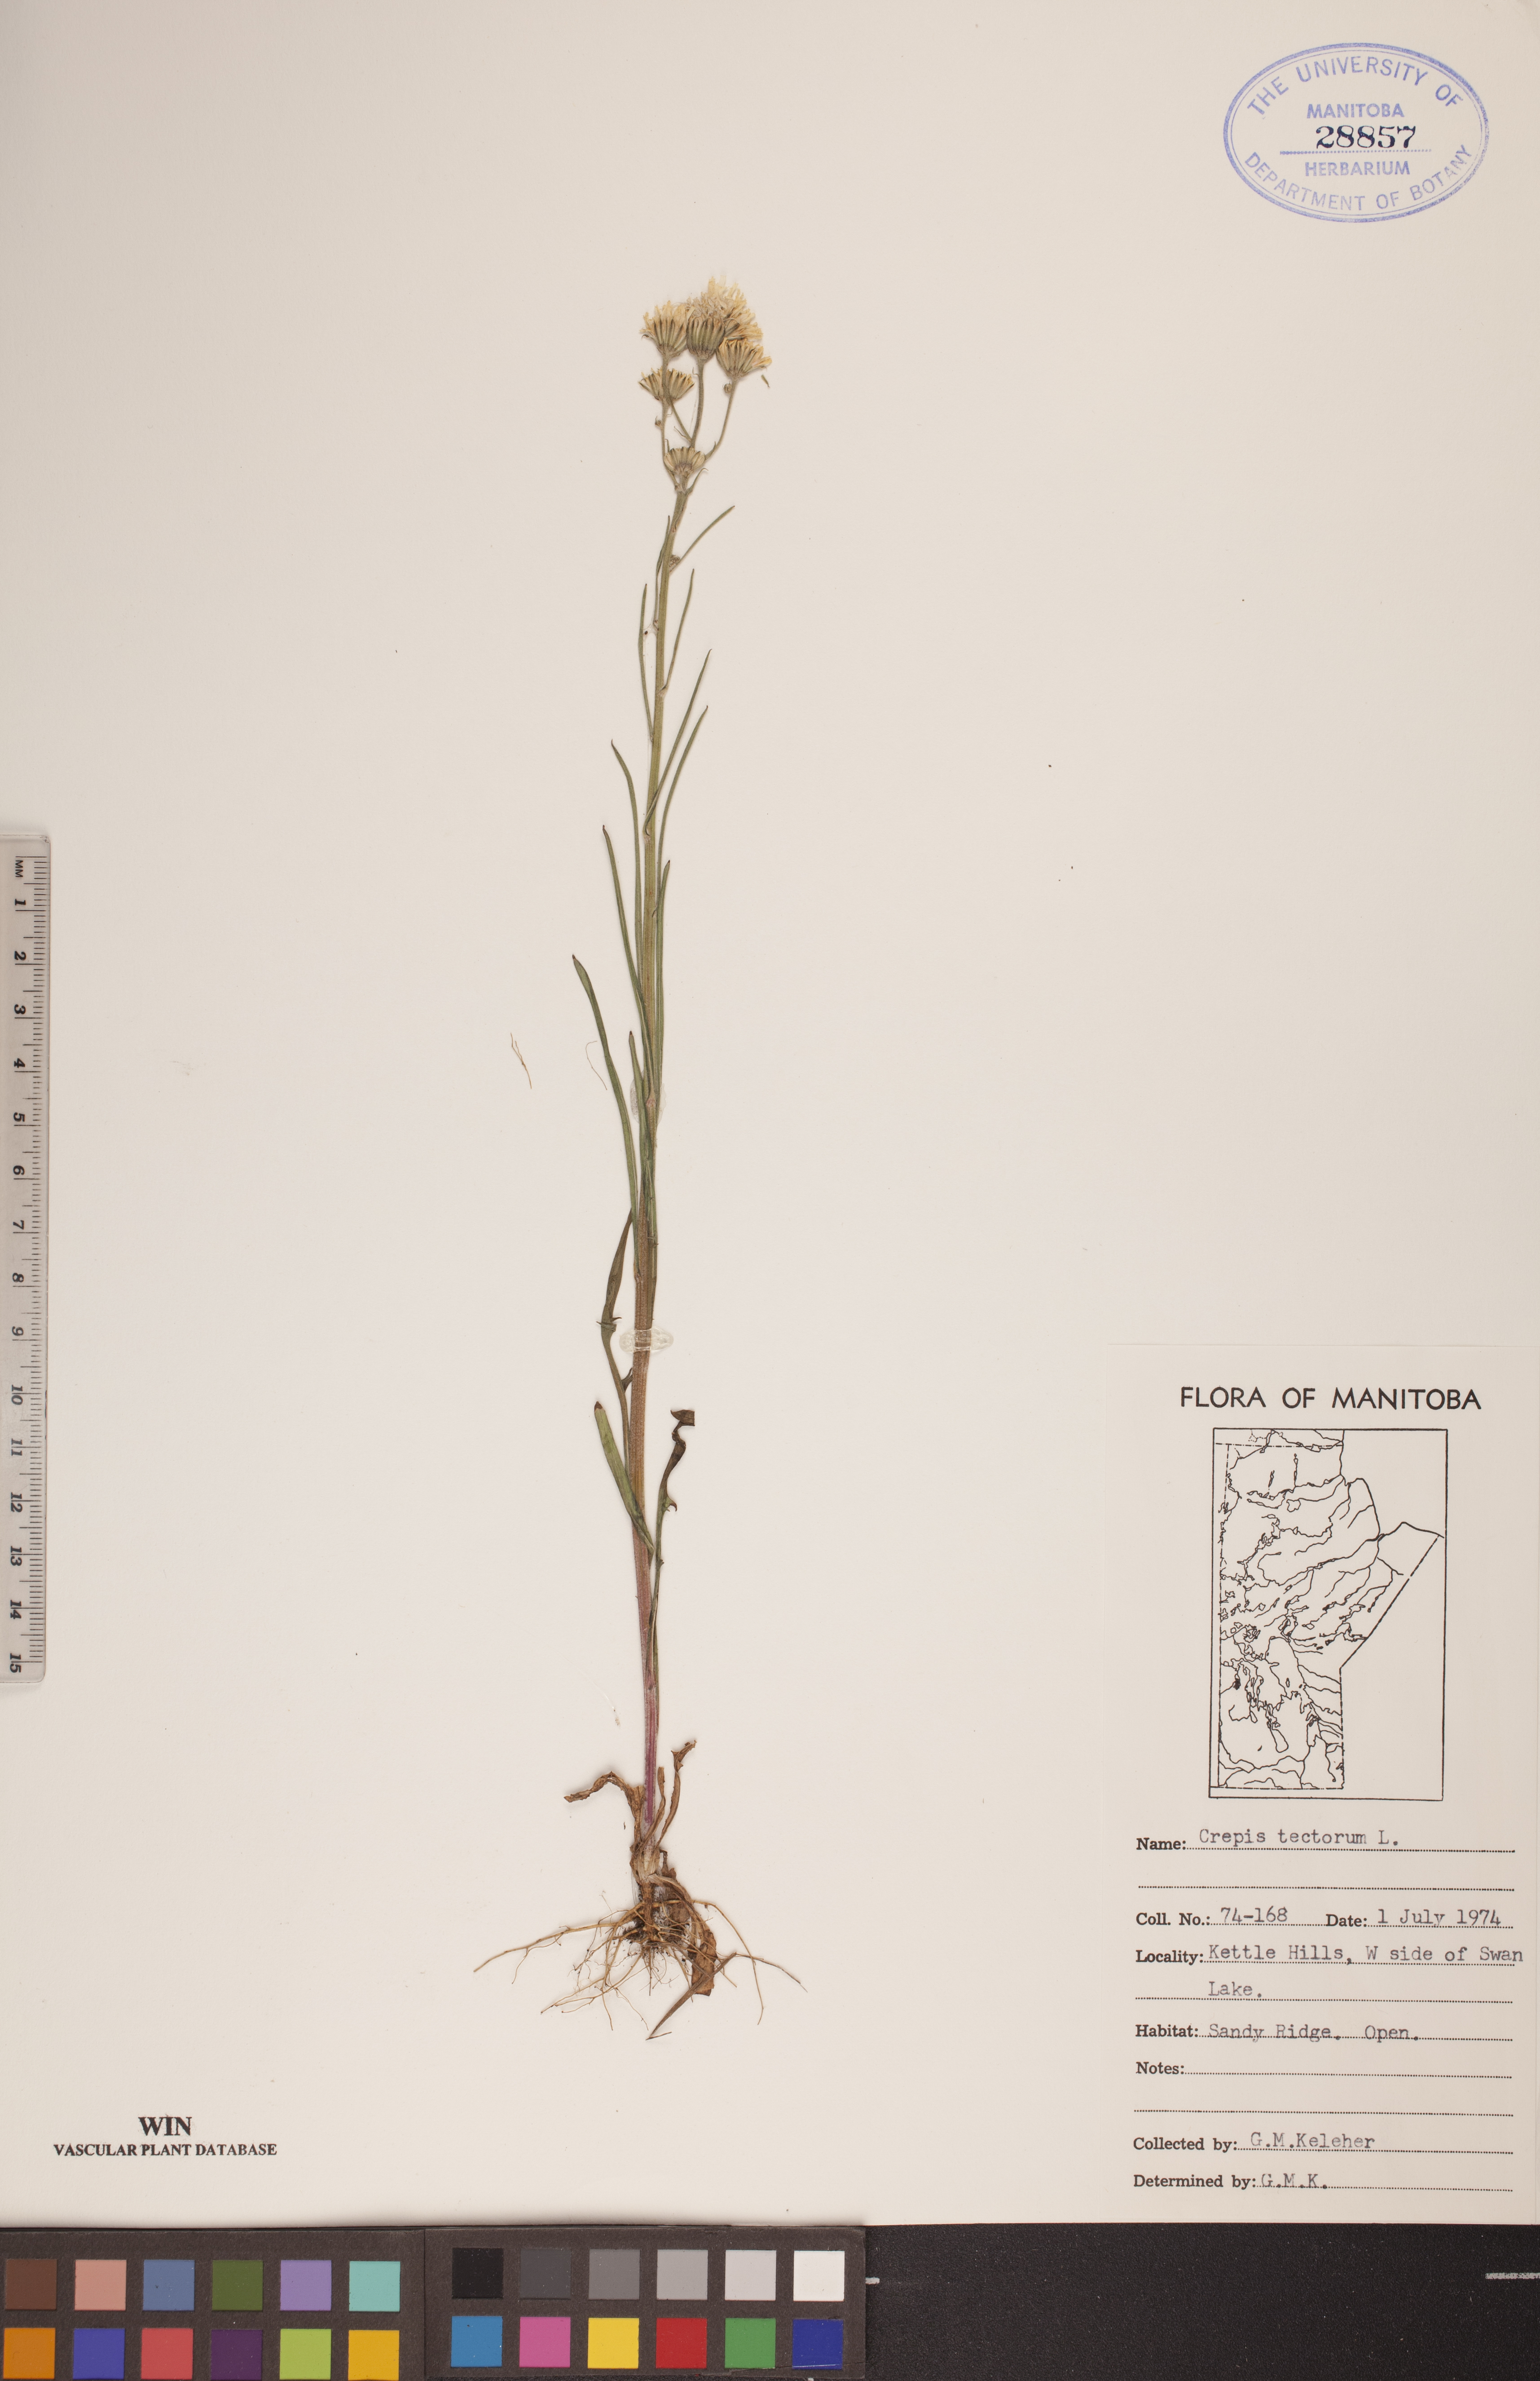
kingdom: Plantae
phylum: Tracheophyta
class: Magnoliopsida
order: Asterales
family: Asteraceae
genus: Crepis
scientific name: Crepis tectorum
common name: Narrow-leaved hawk's-beard
